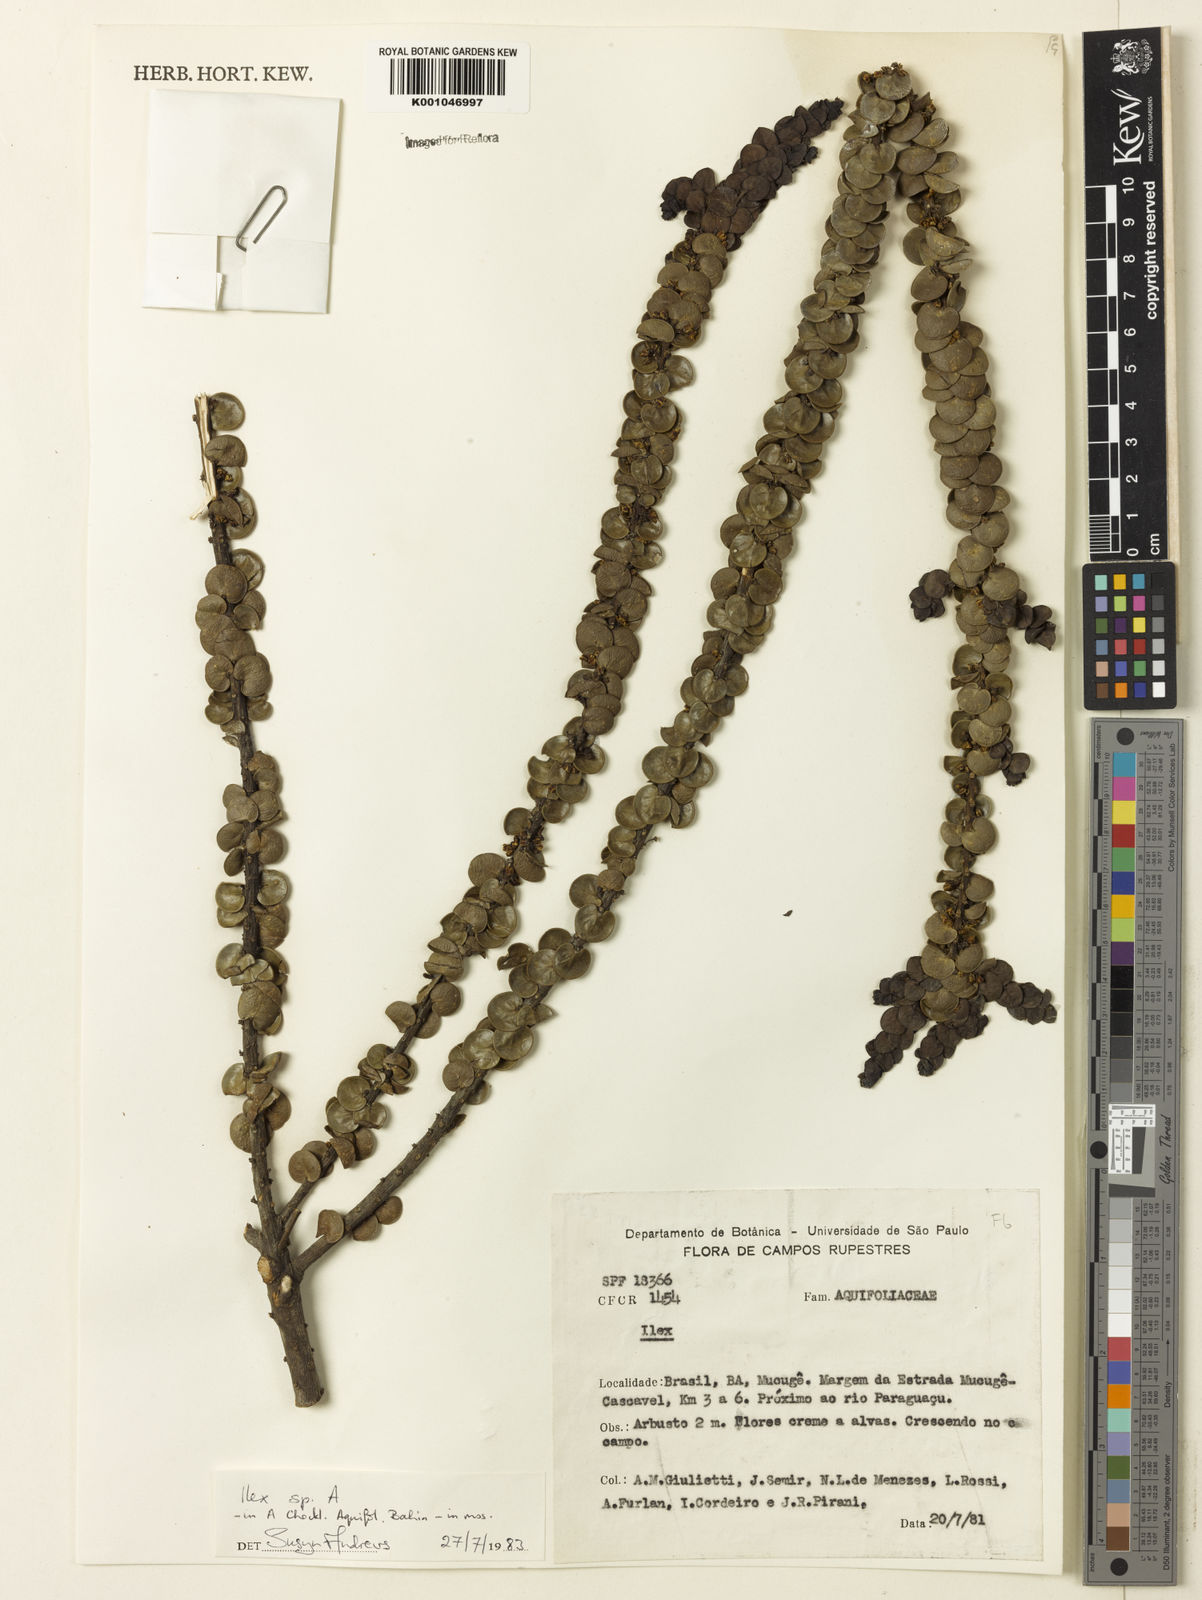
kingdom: Plantae
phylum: Tracheophyta
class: Magnoliopsida
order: Aquifoliales
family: Aquifoliaceae
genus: Ilex
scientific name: Ilex
